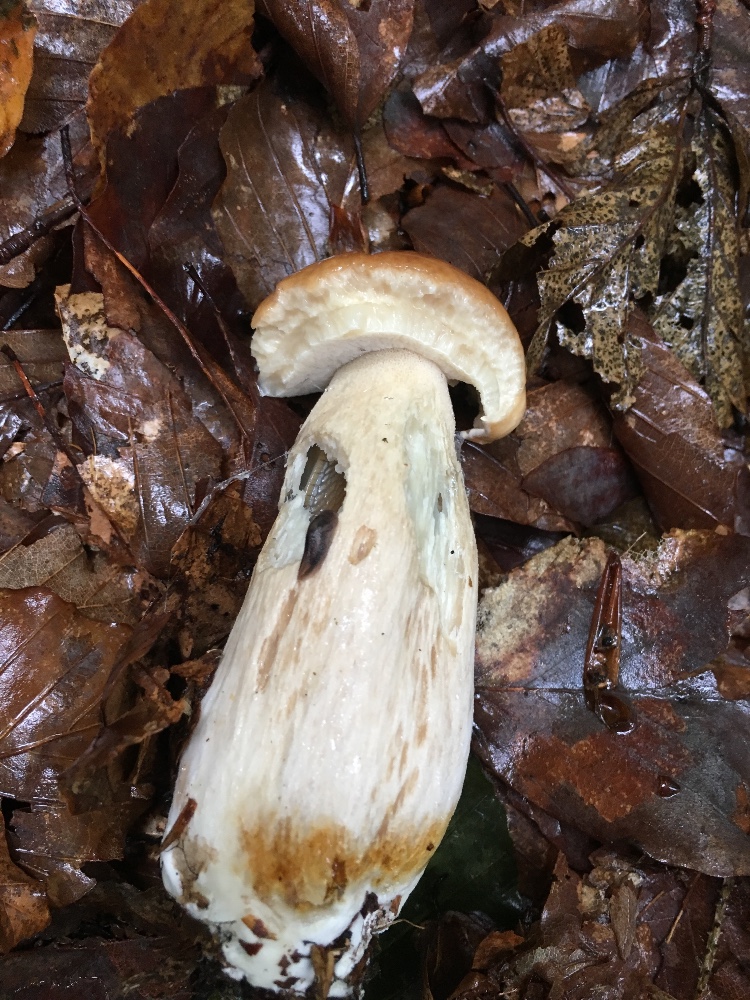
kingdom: Fungi
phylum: Basidiomycota
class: Agaricomycetes
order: Boletales
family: Boletaceae
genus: Boletus
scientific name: Boletus edulis
